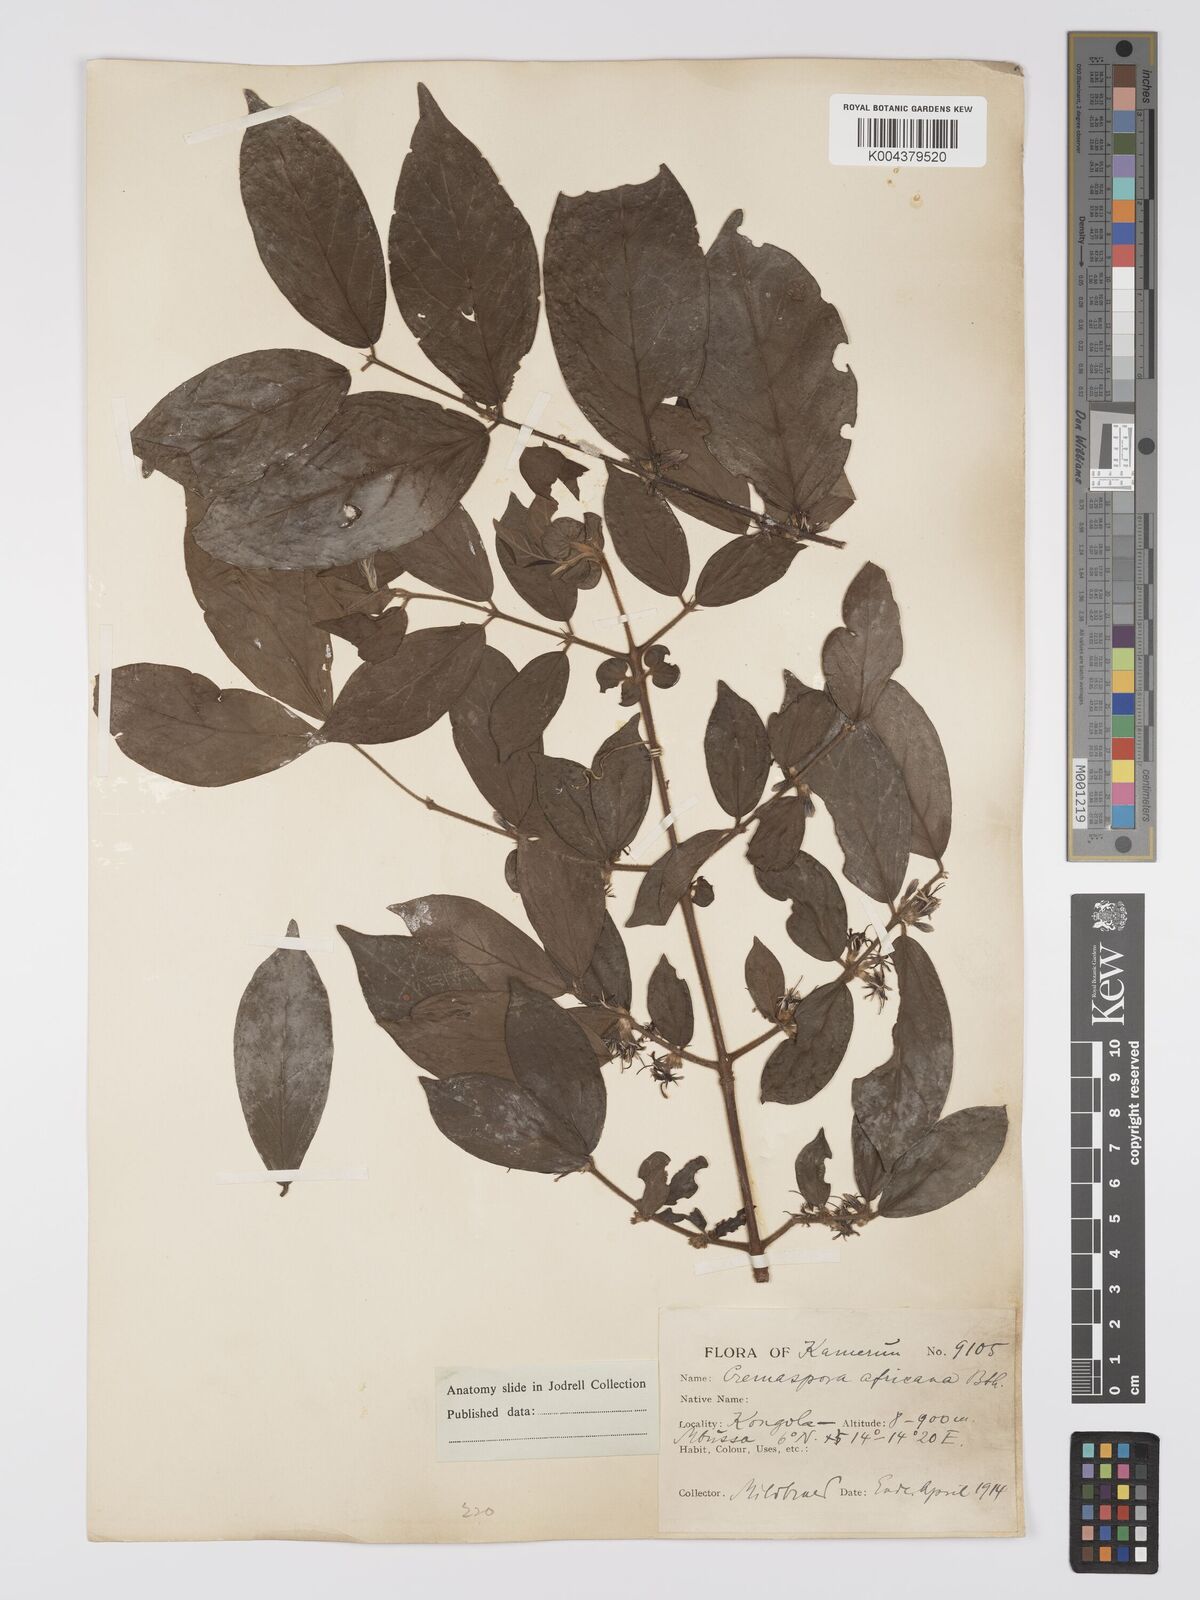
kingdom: Plantae
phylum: Tracheophyta
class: Magnoliopsida
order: Gentianales
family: Rubiaceae
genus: Cremaspora
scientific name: Cremaspora triflora
